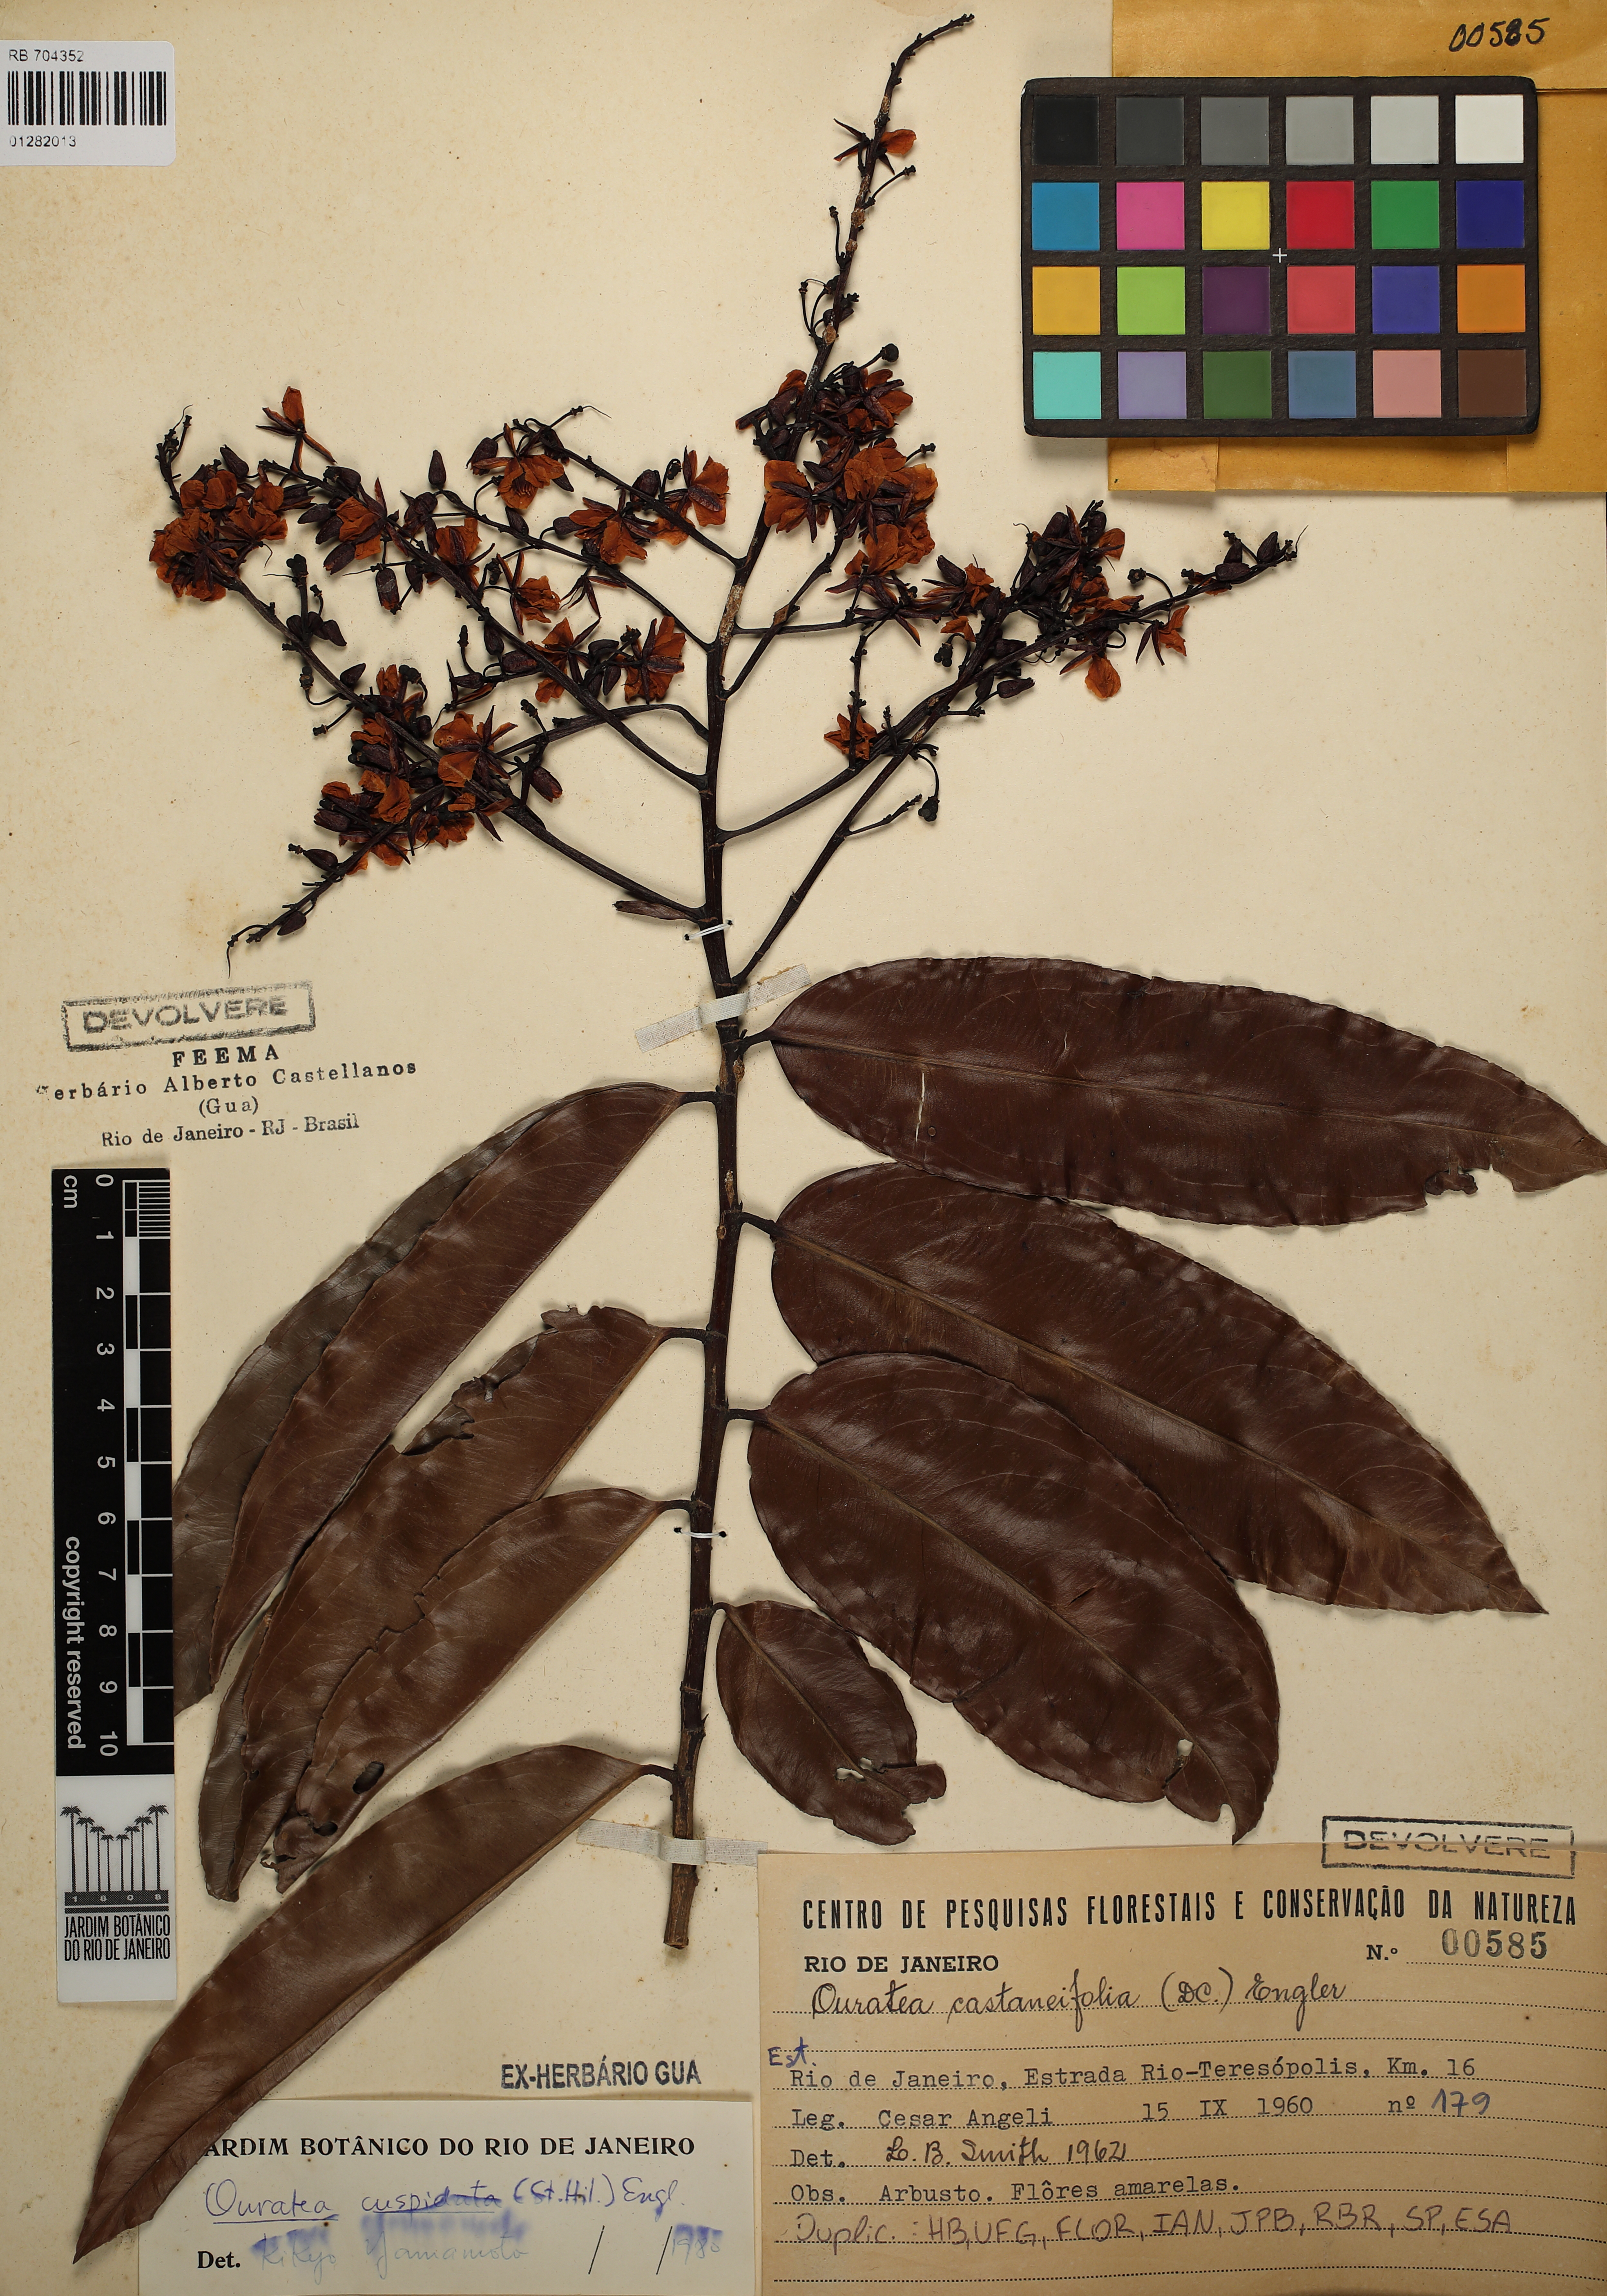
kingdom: Plantae
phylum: Tracheophyta
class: Magnoliopsida
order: Malpighiales
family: Ochnaceae
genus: Ouratea
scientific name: Ouratea castaneifolia
